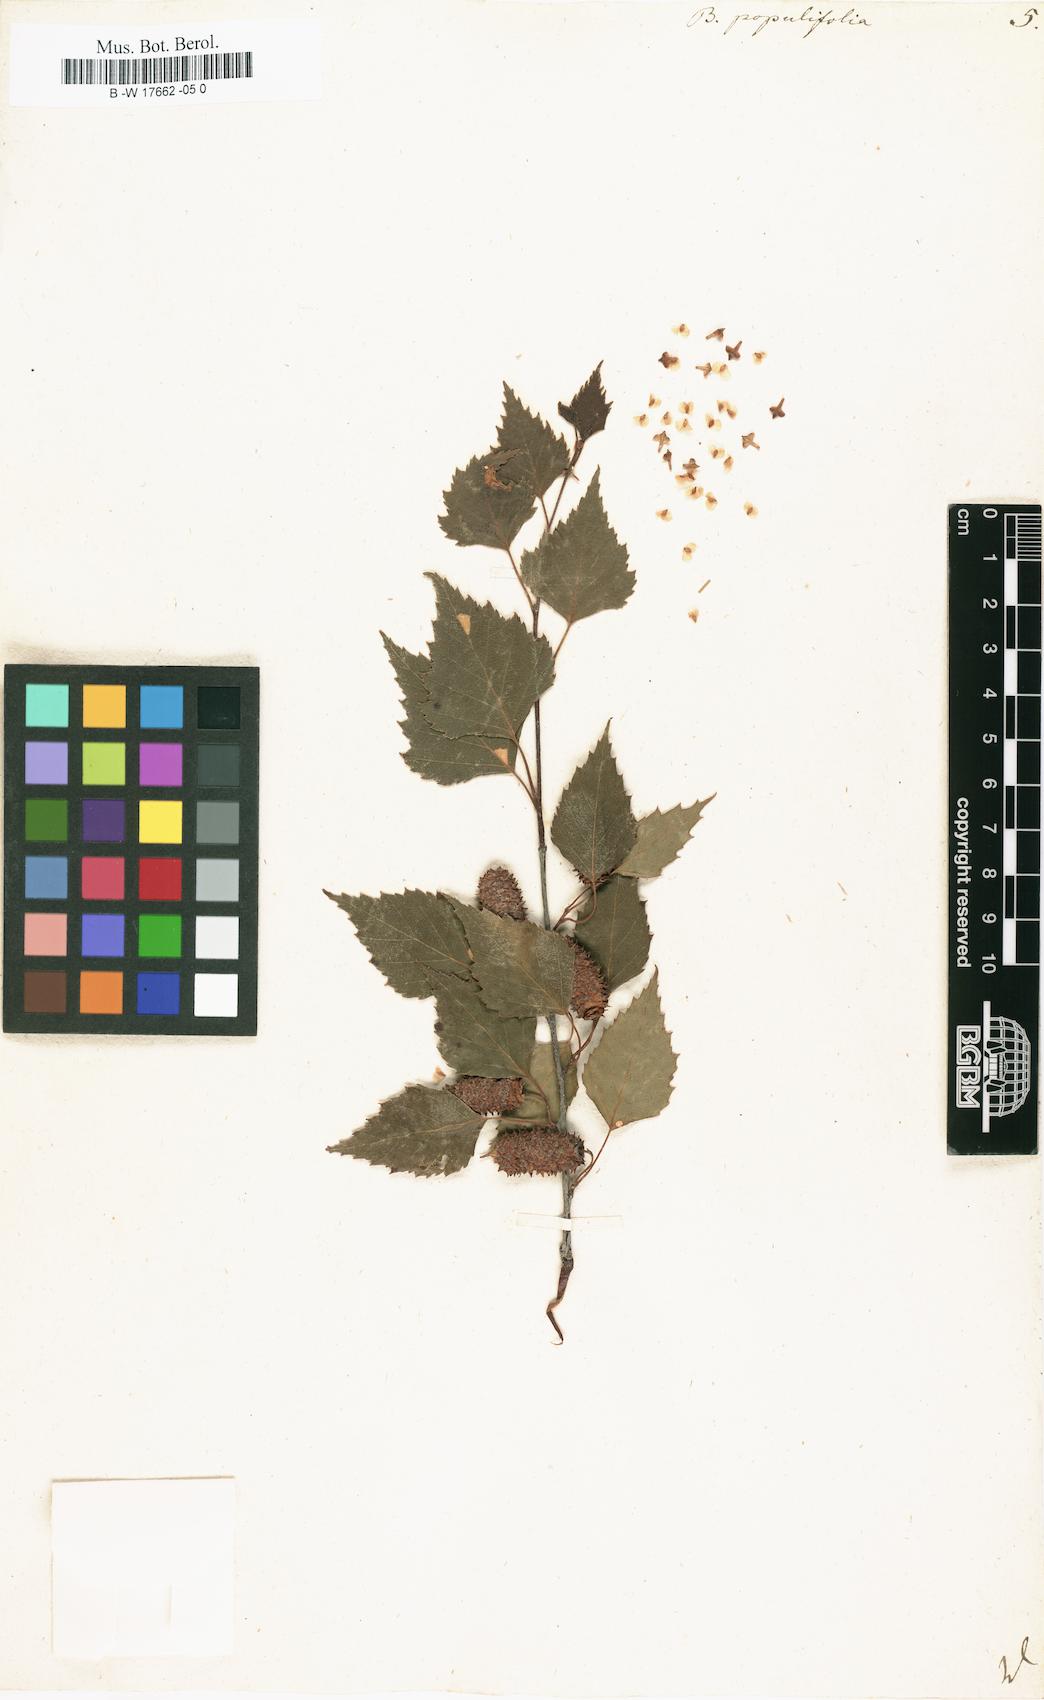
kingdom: Plantae
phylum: Tracheophyta
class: Magnoliopsida
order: Fagales
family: Betulaceae
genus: Betula
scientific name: Betula pubescens
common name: Downy birch
